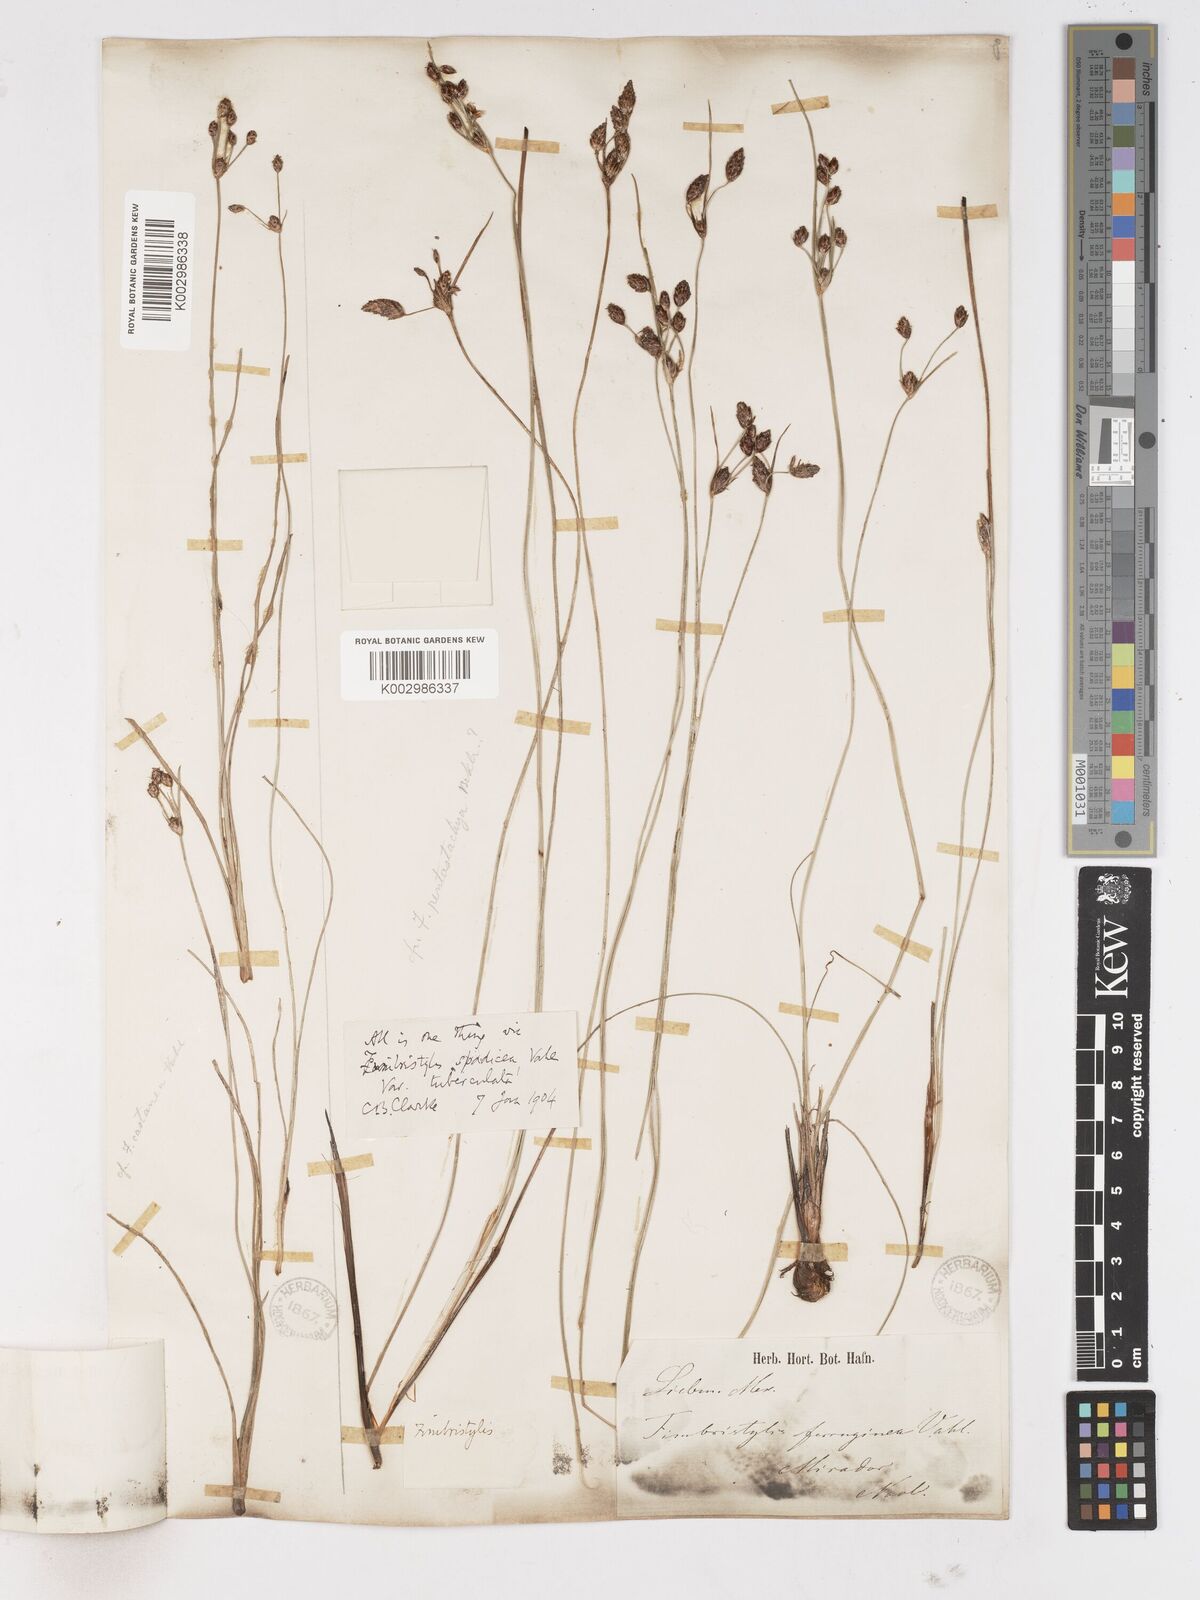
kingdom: Plantae
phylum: Tracheophyta
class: Liliopsida
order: Poales
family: Cyperaceae
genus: Fimbristylis
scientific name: Fimbristylis spadicea
